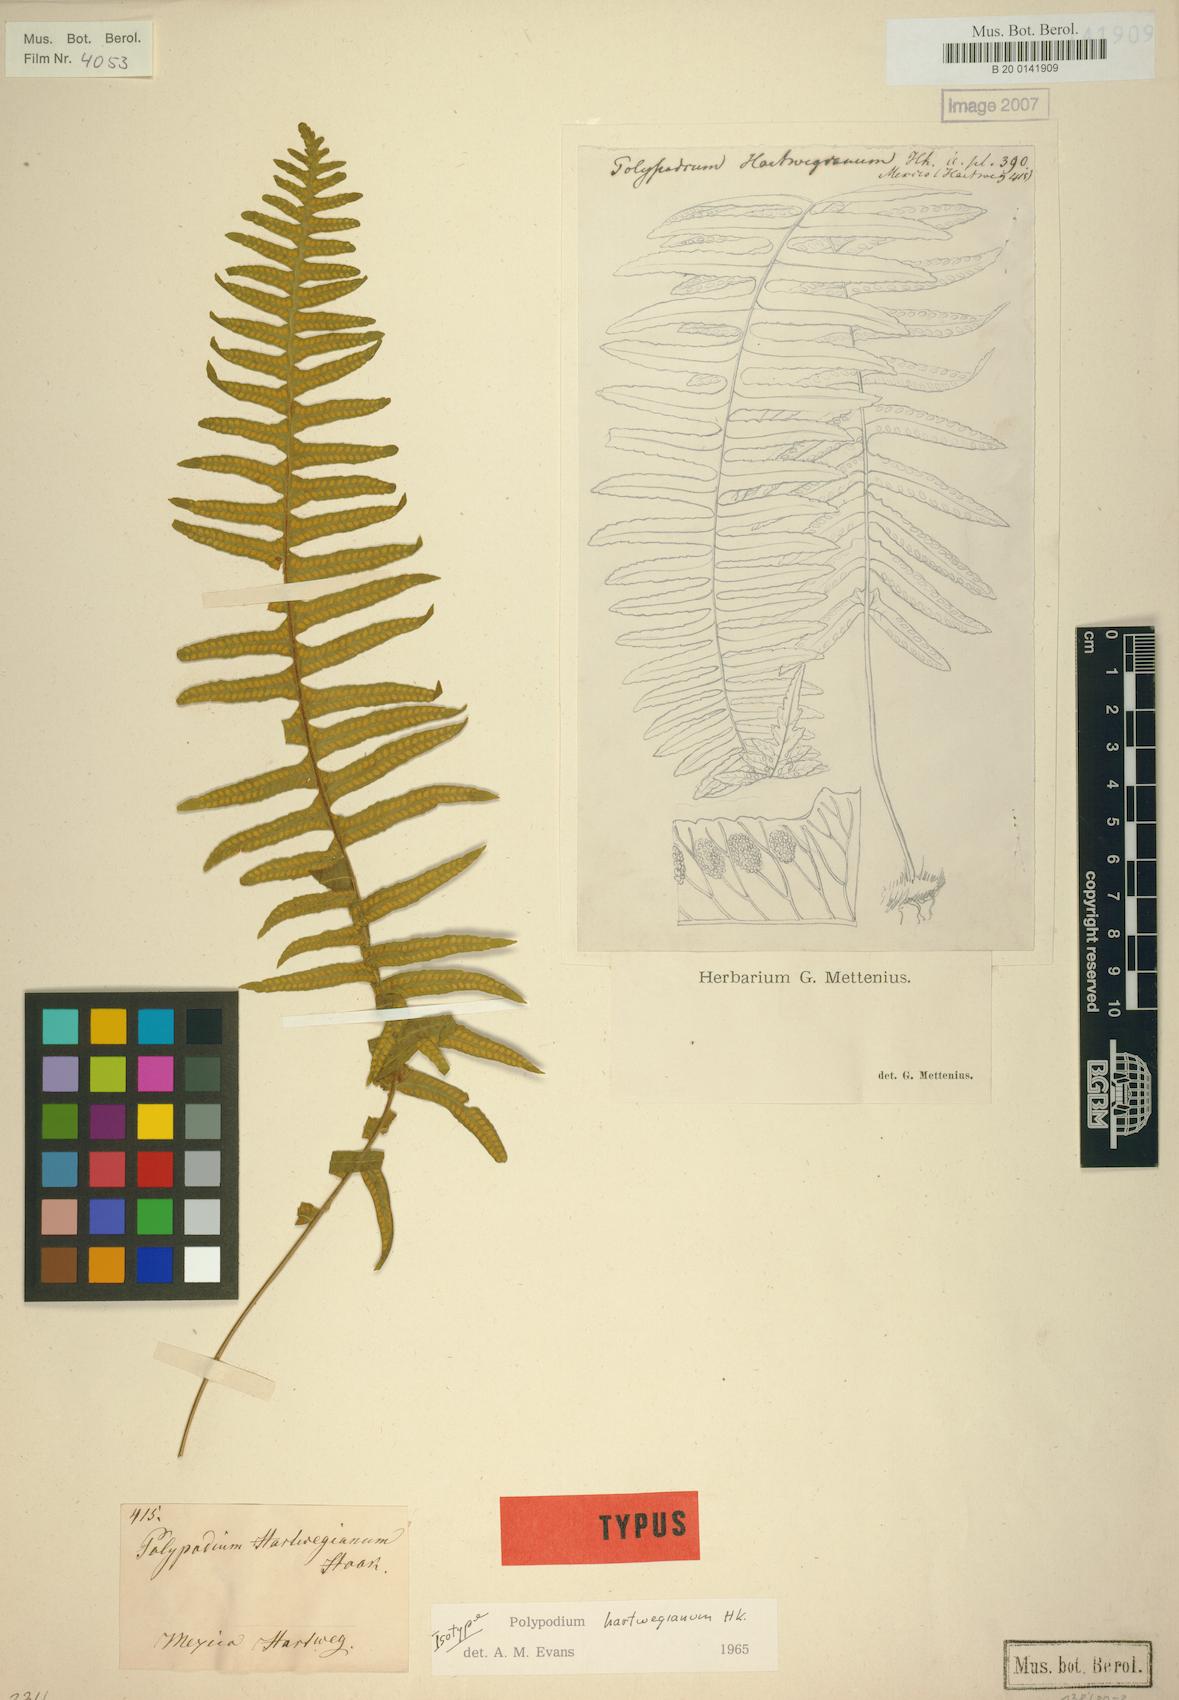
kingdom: Plantae
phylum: Tracheophyta
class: Polypodiopsida
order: Polypodiales
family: Polypodiaceae
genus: Pecluma
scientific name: Pecluma hartwegiana
